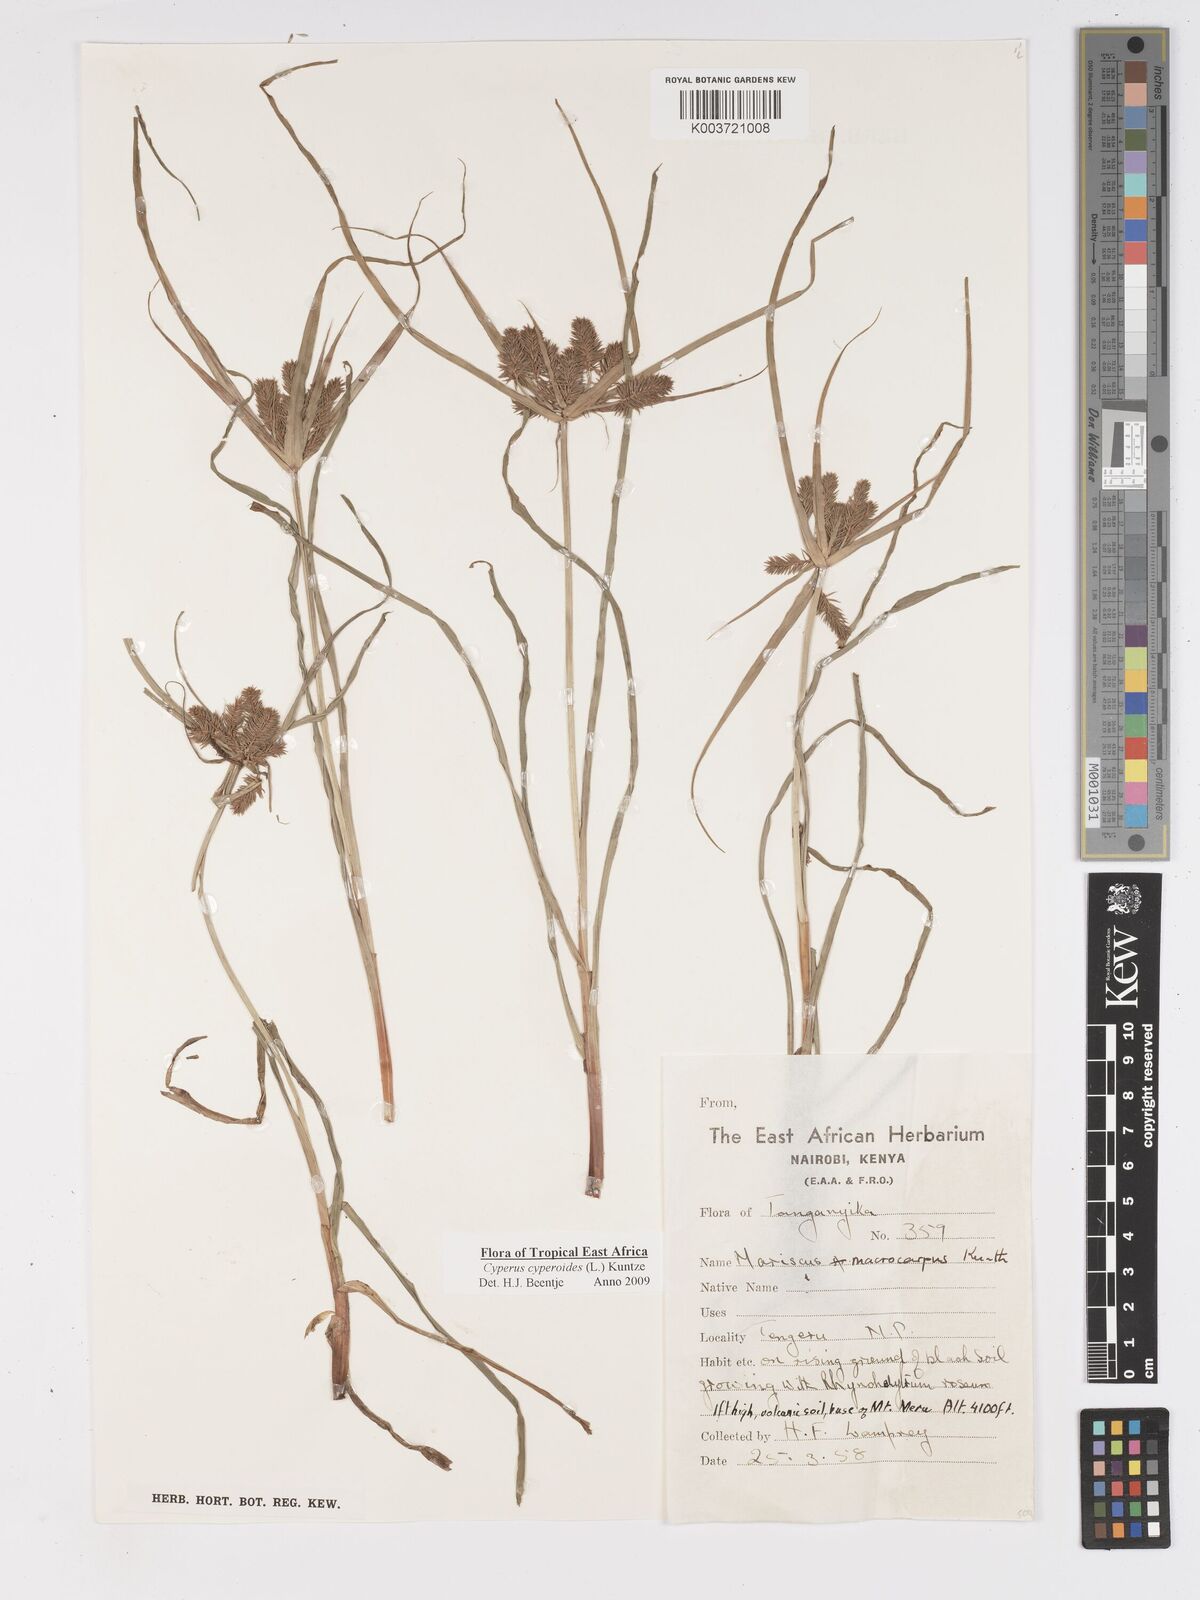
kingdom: Plantae
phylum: Tracheophyta
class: Liliopsida
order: Poales
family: Cyperaceae
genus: Cyperus
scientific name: Cyperus cyperoides
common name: Pacific island flat sedge
